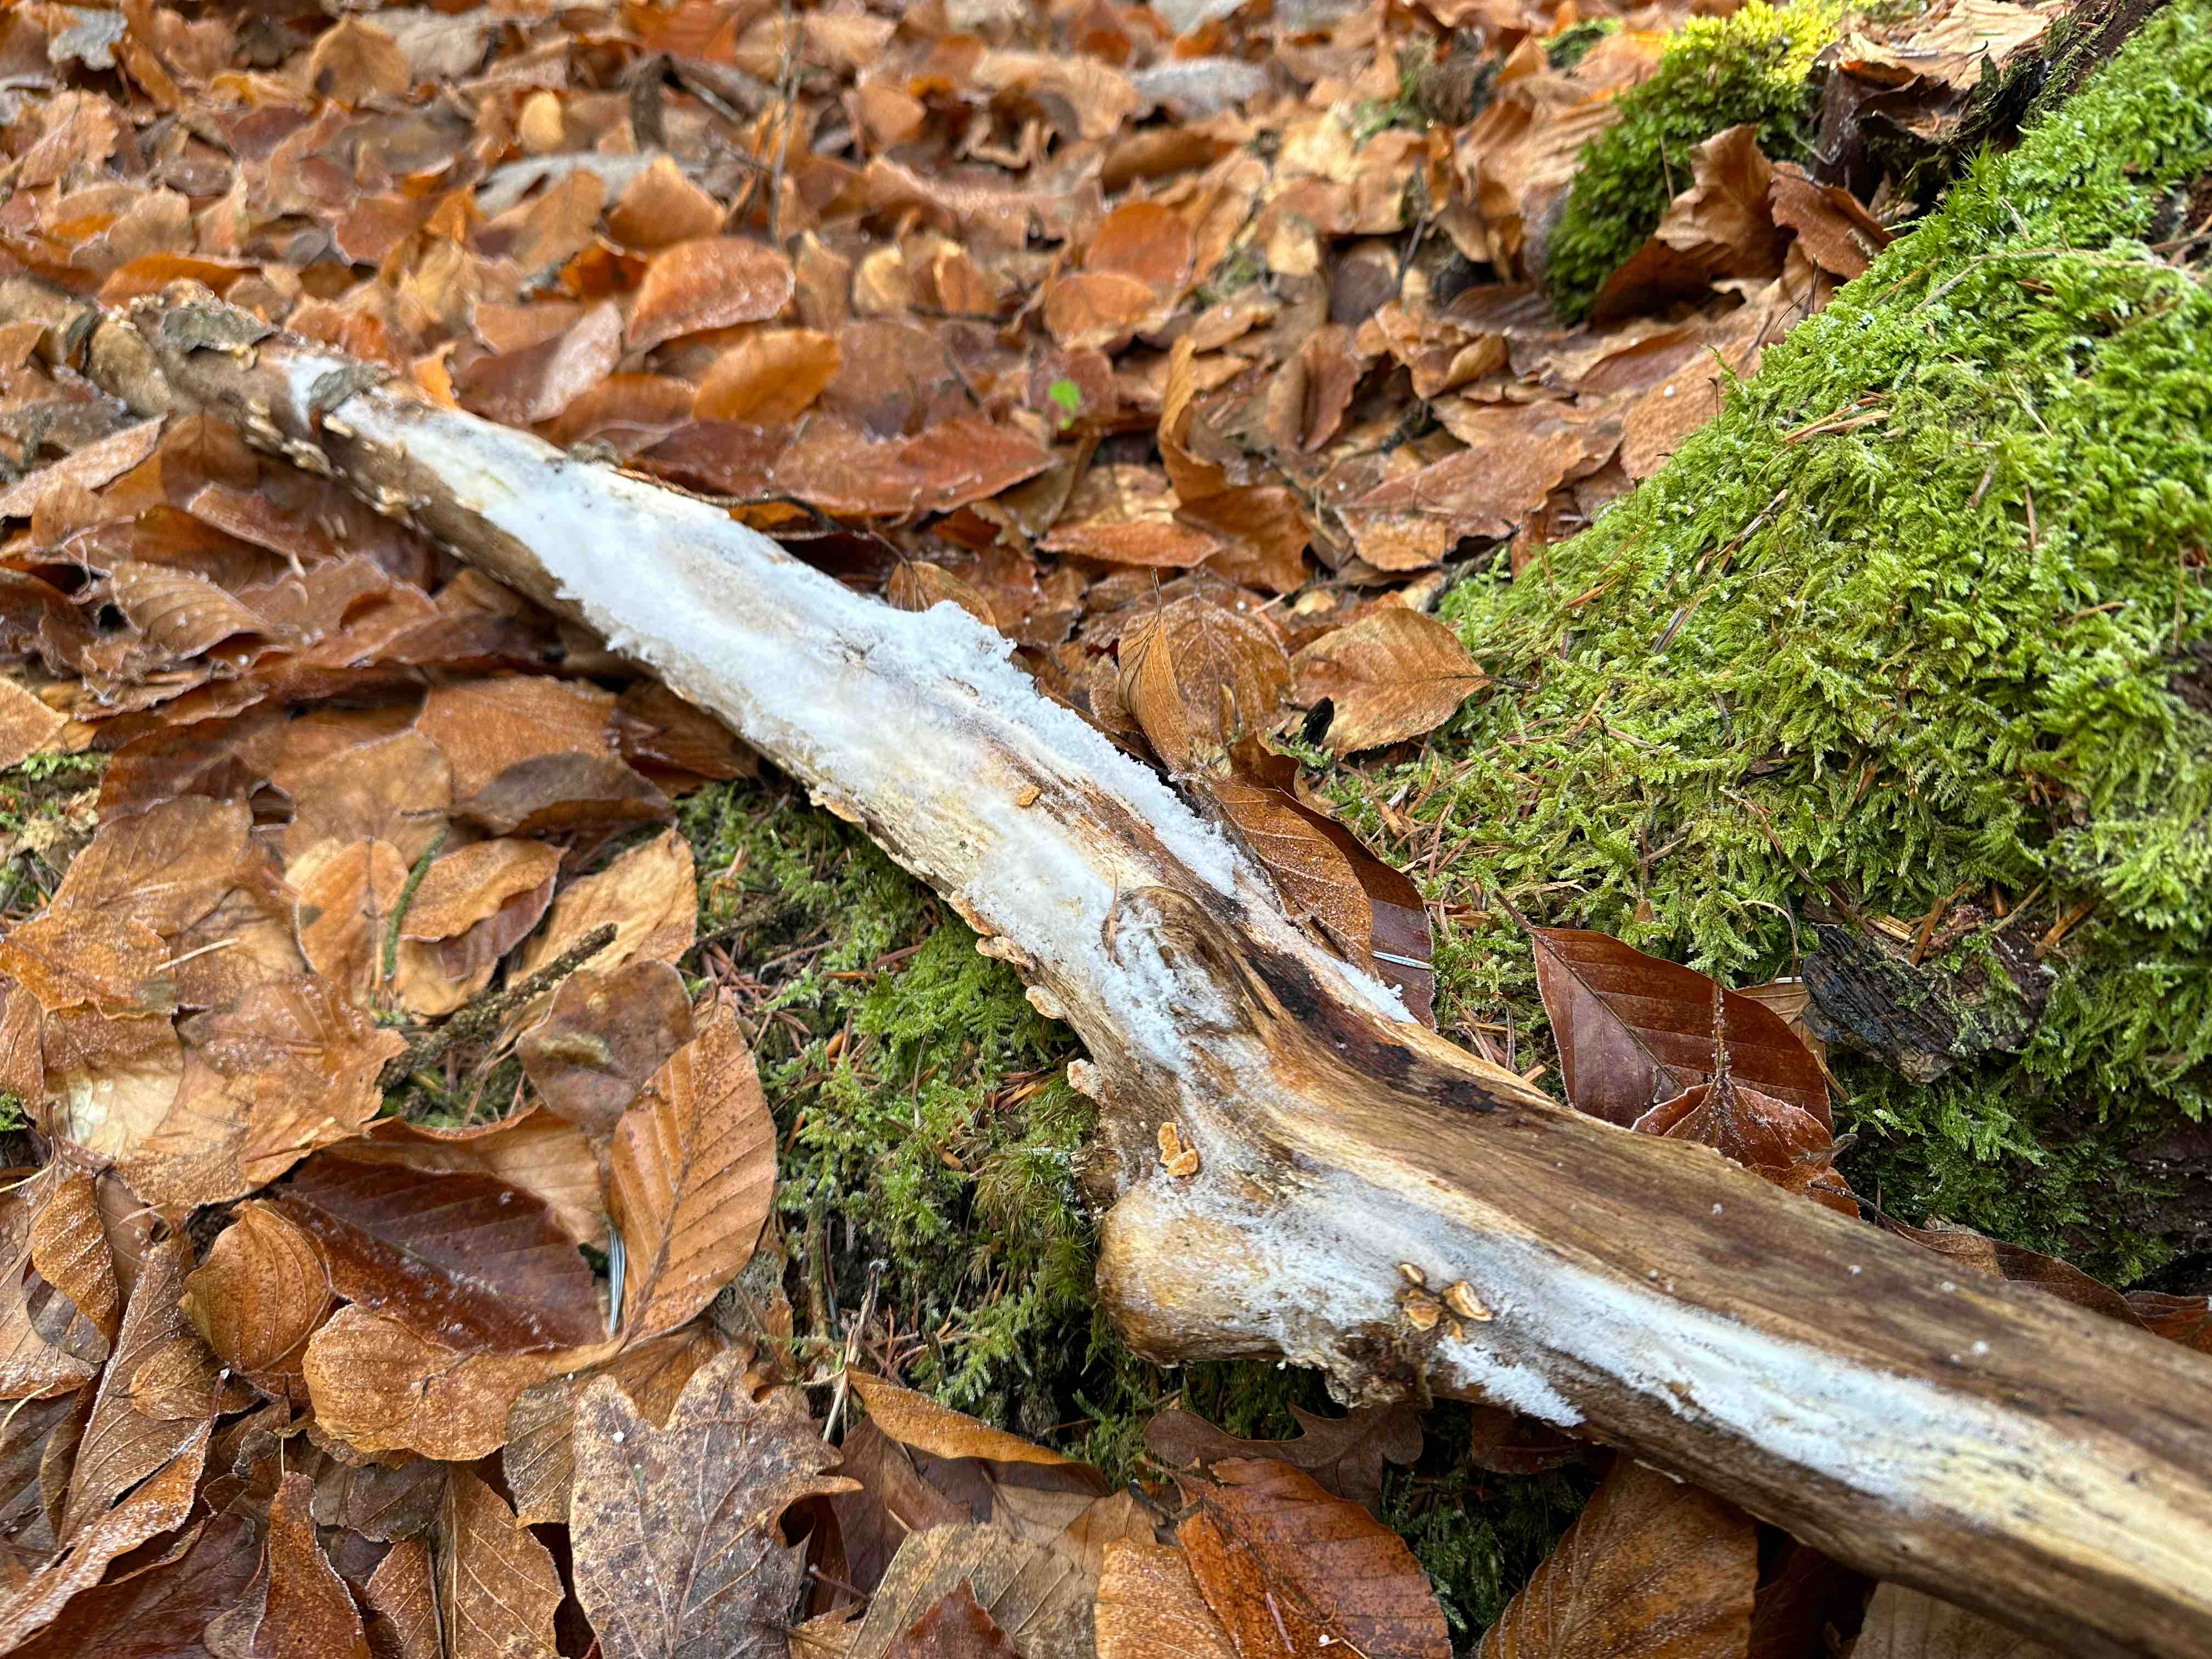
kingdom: Fungi
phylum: Basidiomycota
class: Tremellomycetes
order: Tremellales
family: Exidiaceae
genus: Exidiopsis
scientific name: Exidiopsis effusa
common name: smuk bævrehinde
